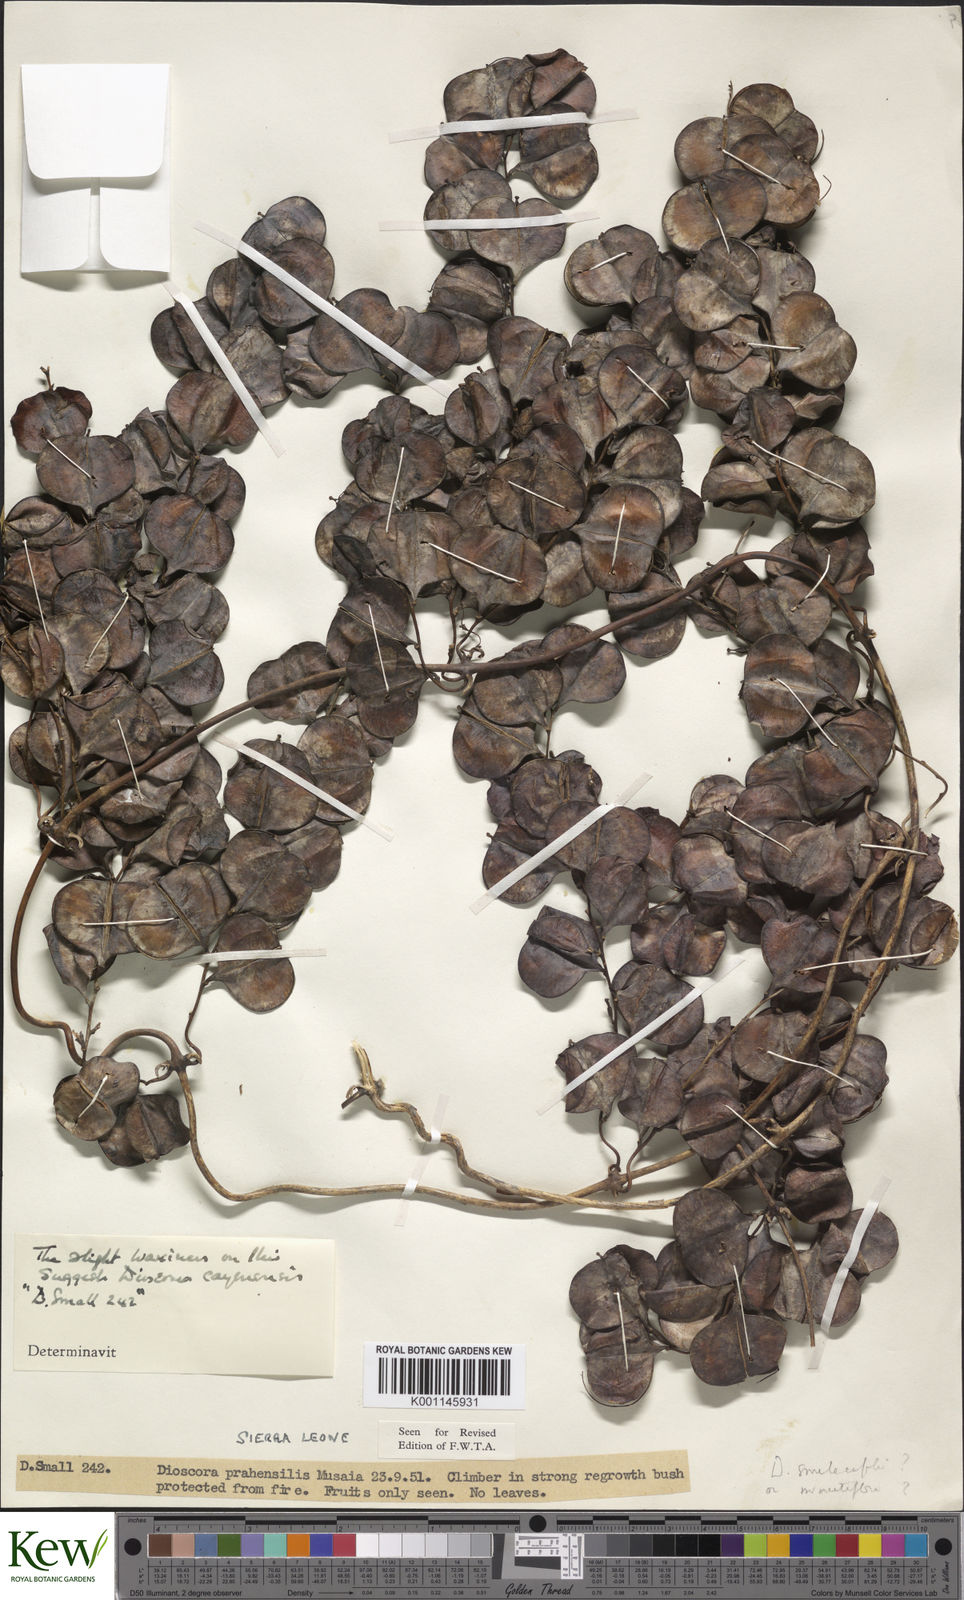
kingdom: Plantae
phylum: Tracheophyta
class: Liliopsida
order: Dioscoreales
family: Dioscoreaceae
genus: Dioscorea
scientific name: Dioscorea praehensilis
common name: Bush yam
